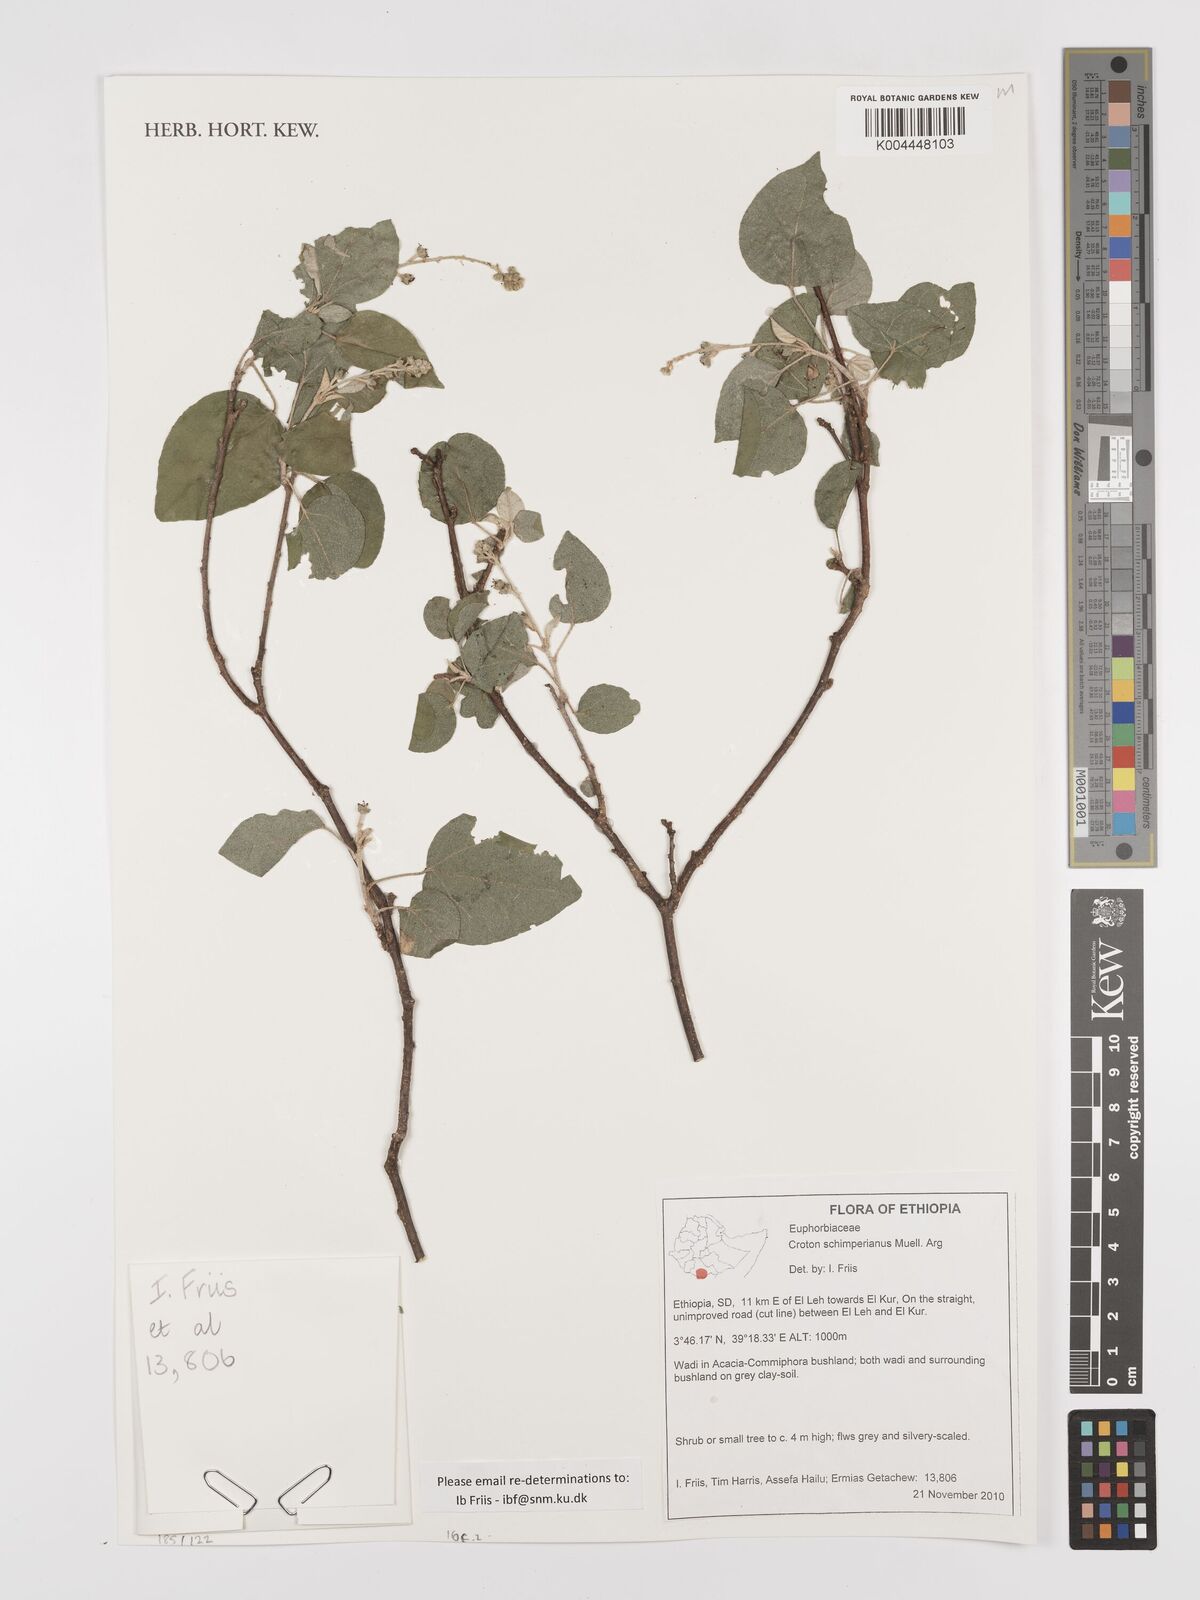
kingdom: Plantae
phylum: Tracheophyta
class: Magnoliopsida
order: Malpighiales
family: Euphorbiaceae
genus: Croton
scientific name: Croton schimperianus
